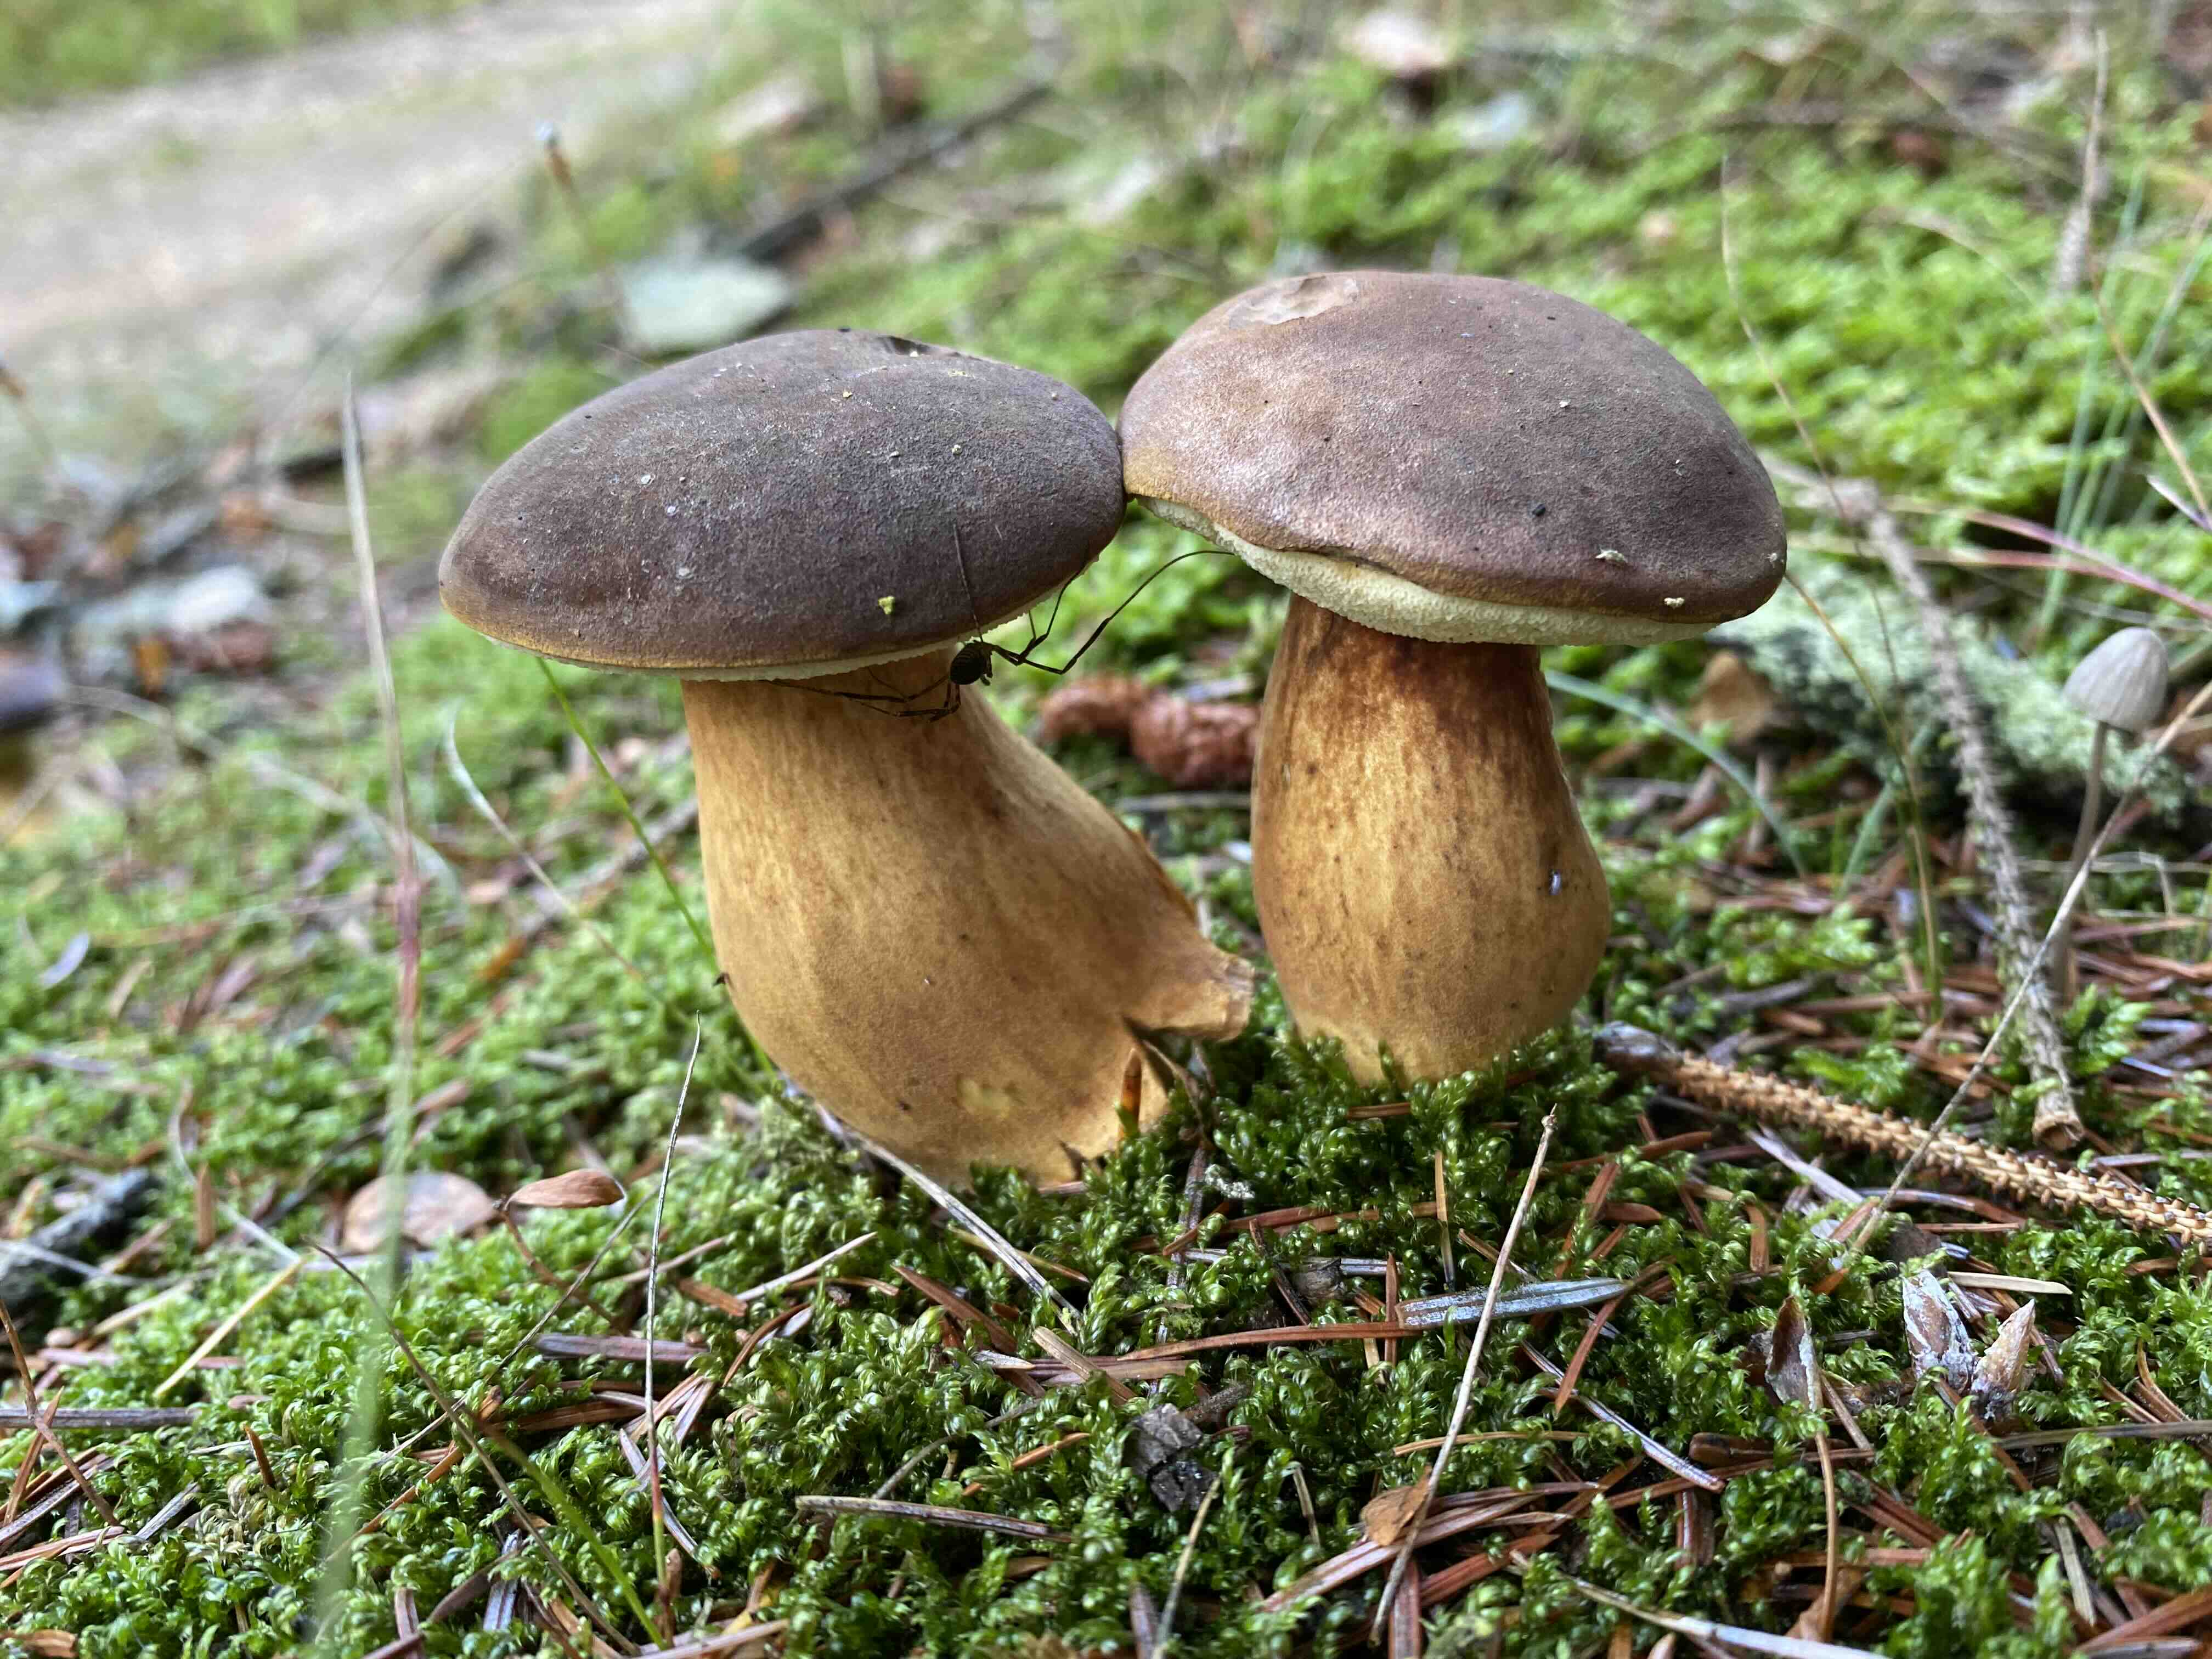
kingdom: Fungi
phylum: Basidiomycota
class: Agaricomycetes
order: Boletales
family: Boletaceae
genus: Imleria
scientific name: Imleria badia
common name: brunstokket rørhat
